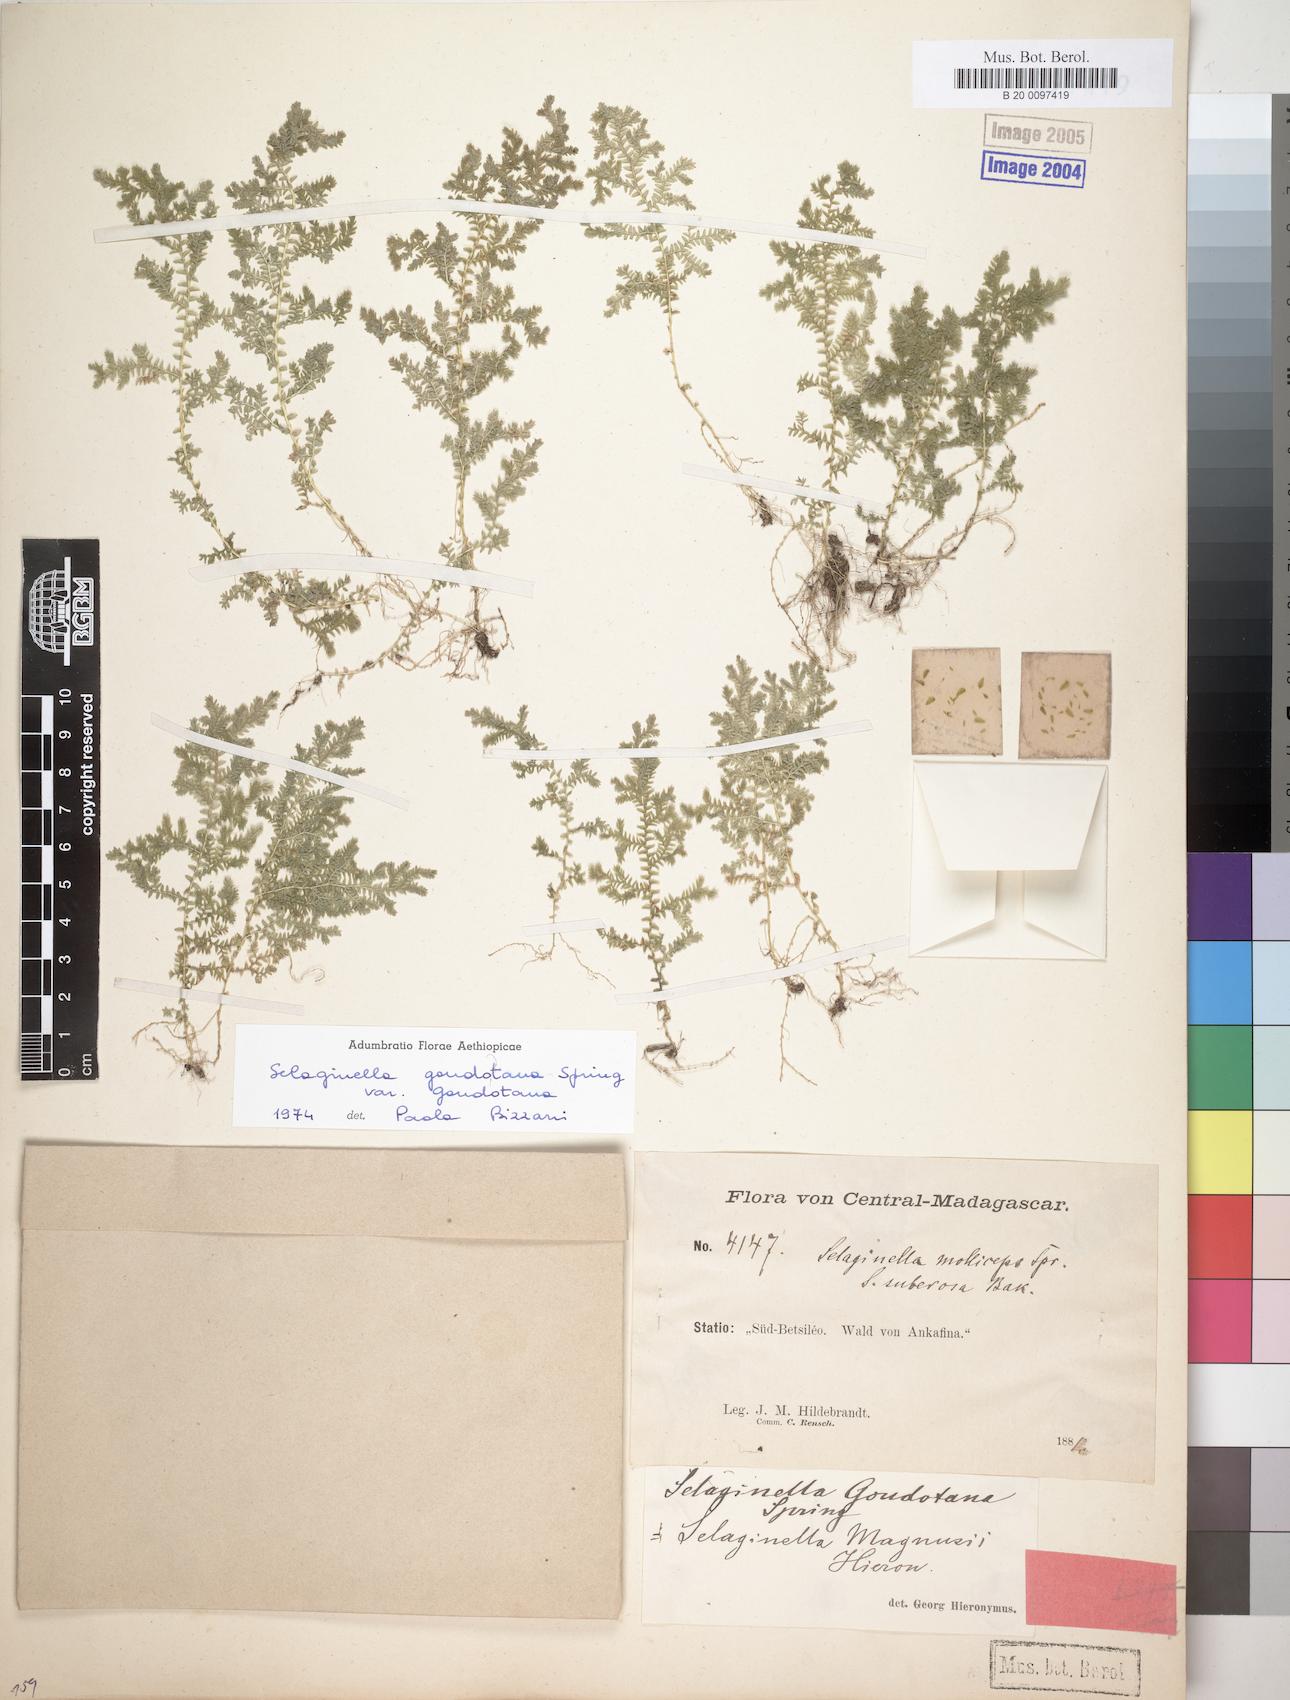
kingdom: Plantae
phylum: Tracheophyta
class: Lycopodiopsida
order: Selaginellales
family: Selaginellaceae
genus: Selaginella
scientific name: Selaginella goudotiana
